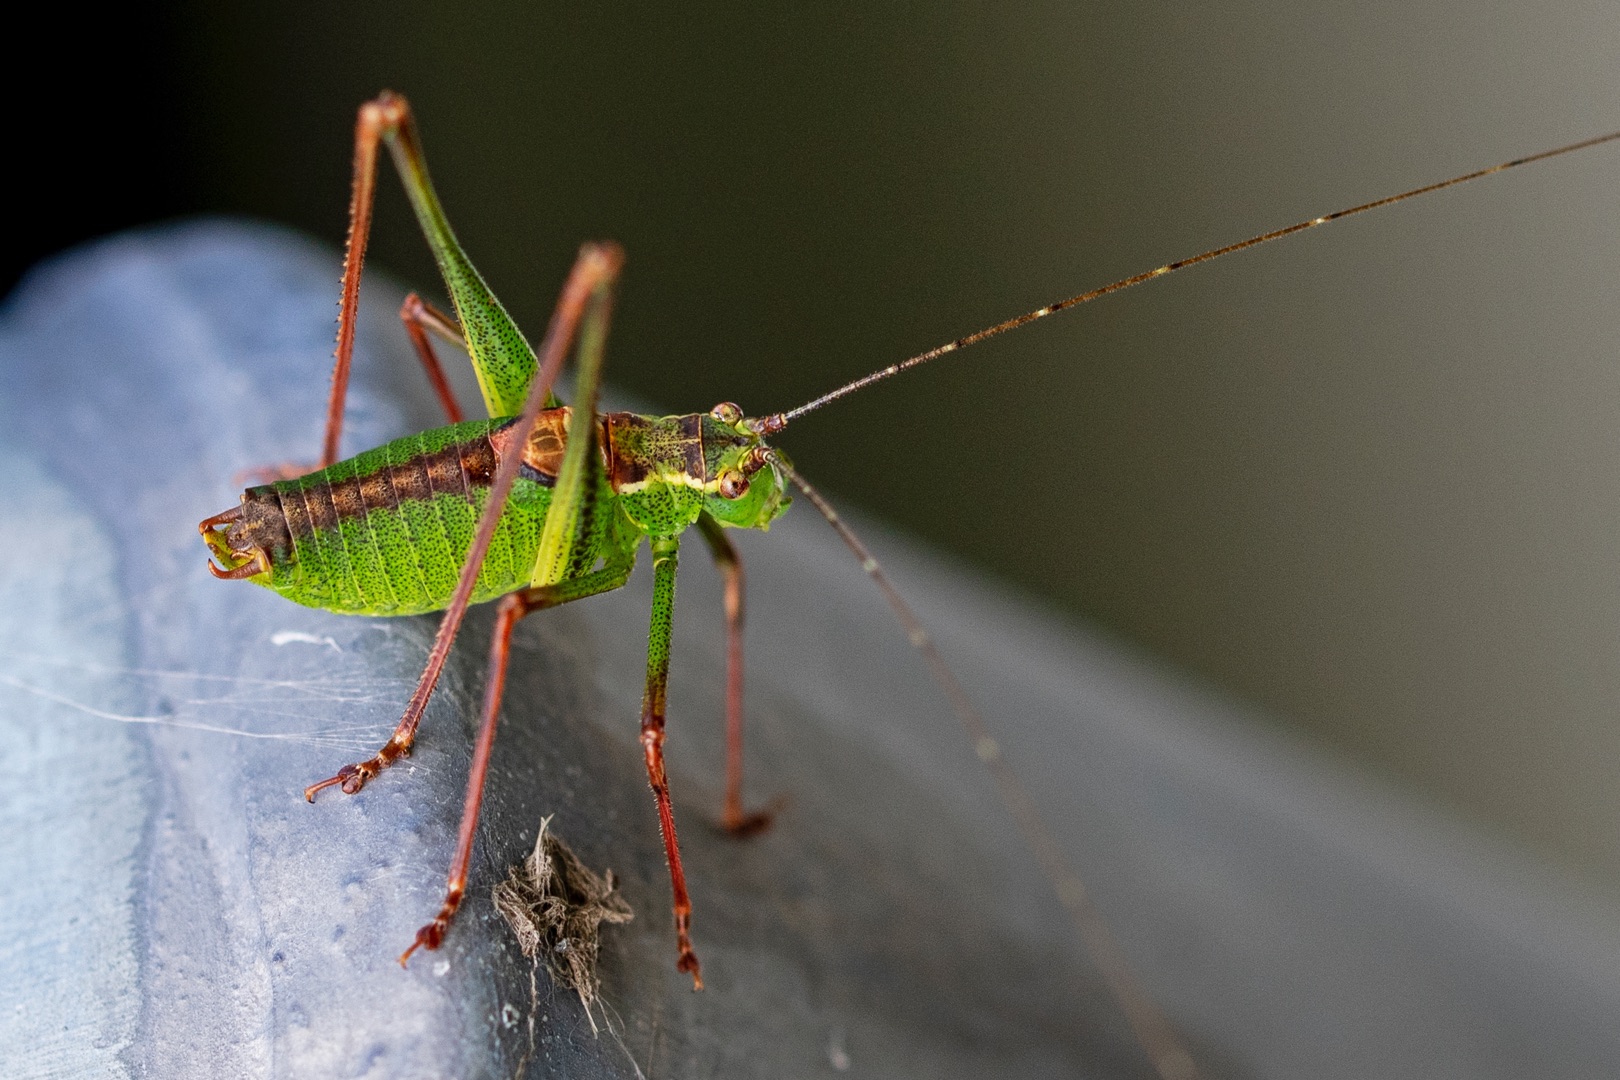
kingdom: Animalia
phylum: Arthropoda
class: Insecta
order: Orthoptera
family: Tettigoniidae
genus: Leptophyes
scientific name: Leptophyes punctatissima
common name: Krumknivgræshoppe
